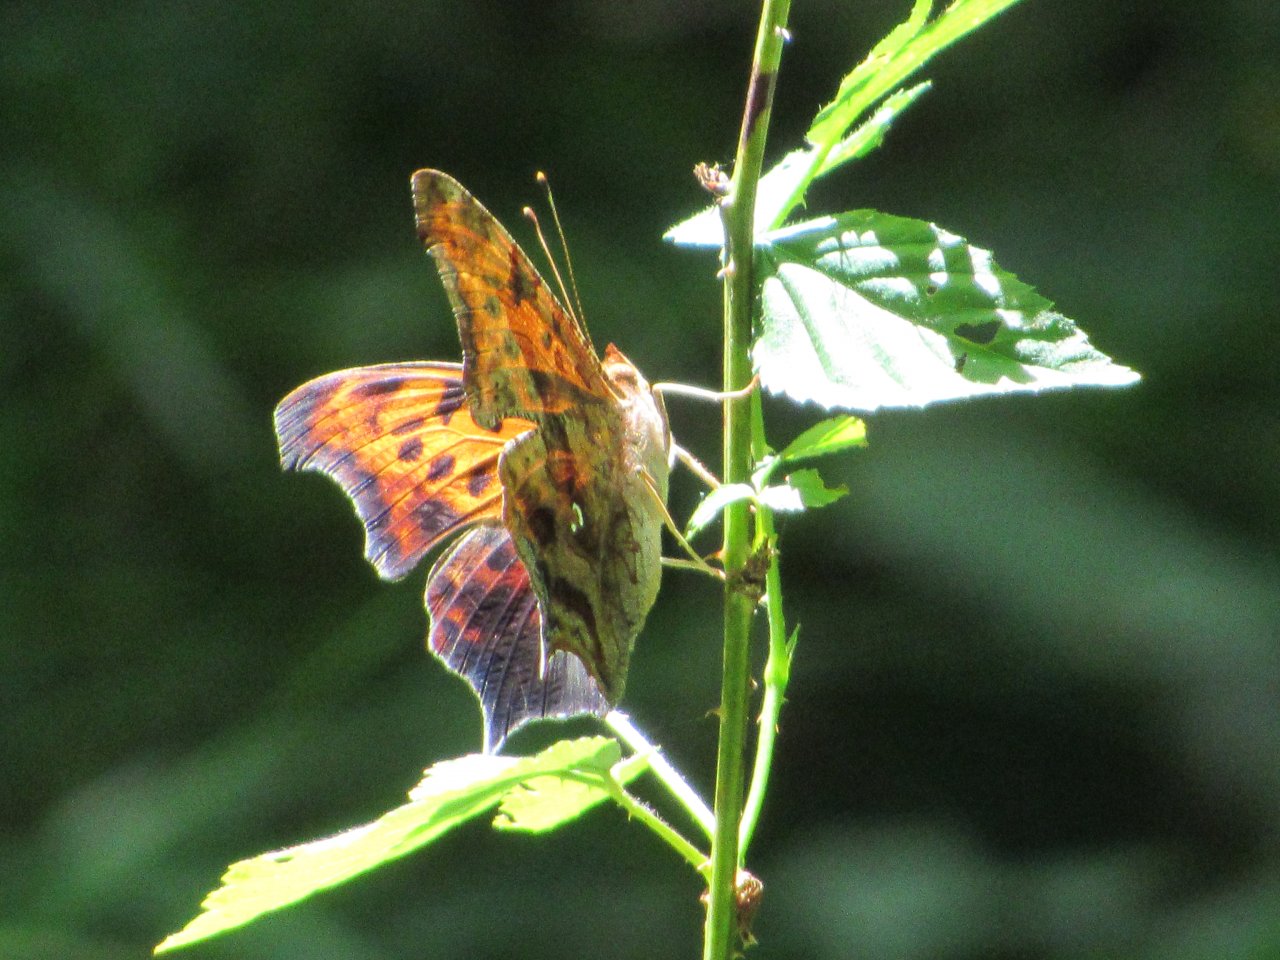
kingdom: Animalia
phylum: Arthropoda
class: Insecta
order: Lepidoptera
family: Nymphalidae
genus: Polygonia
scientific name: Polygonia interrogationis
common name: Question Mark
